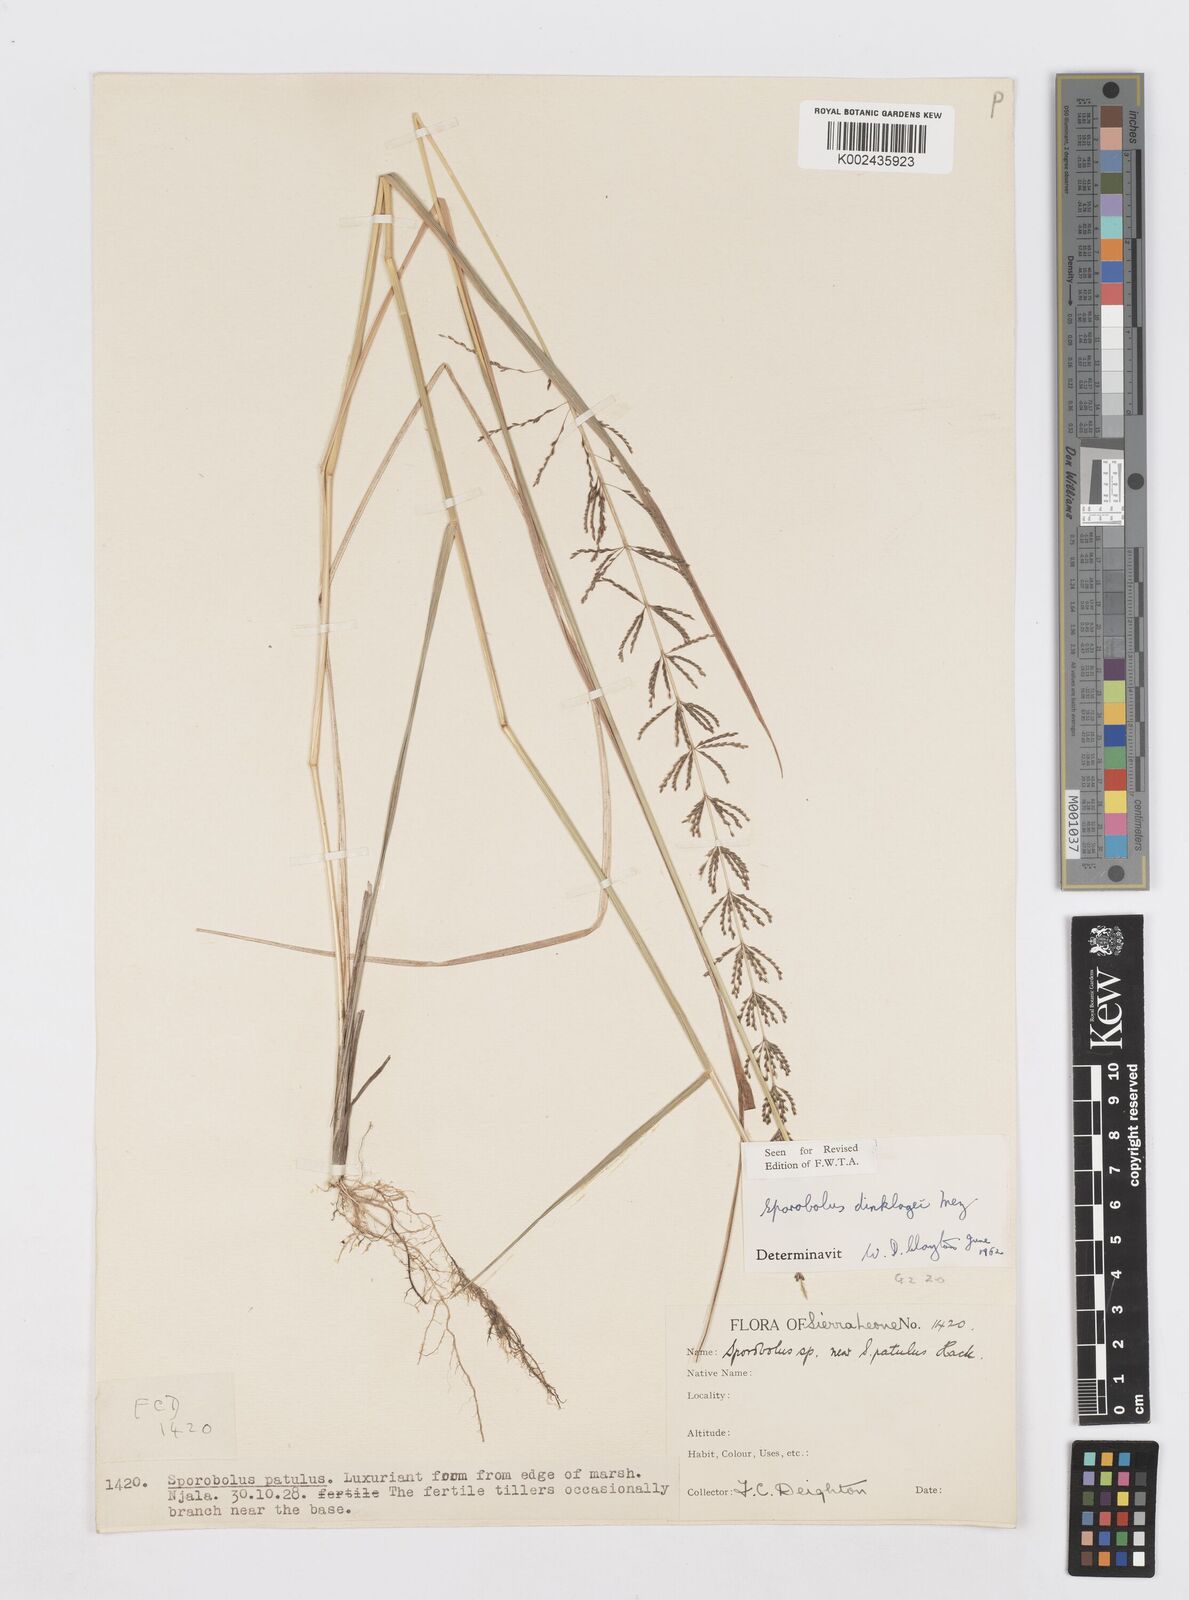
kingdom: Plantae
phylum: Tracheophyta
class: Liliopsida
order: Poales
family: Poaceae
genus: Sporobolus
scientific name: Sporobolus dinklagei
